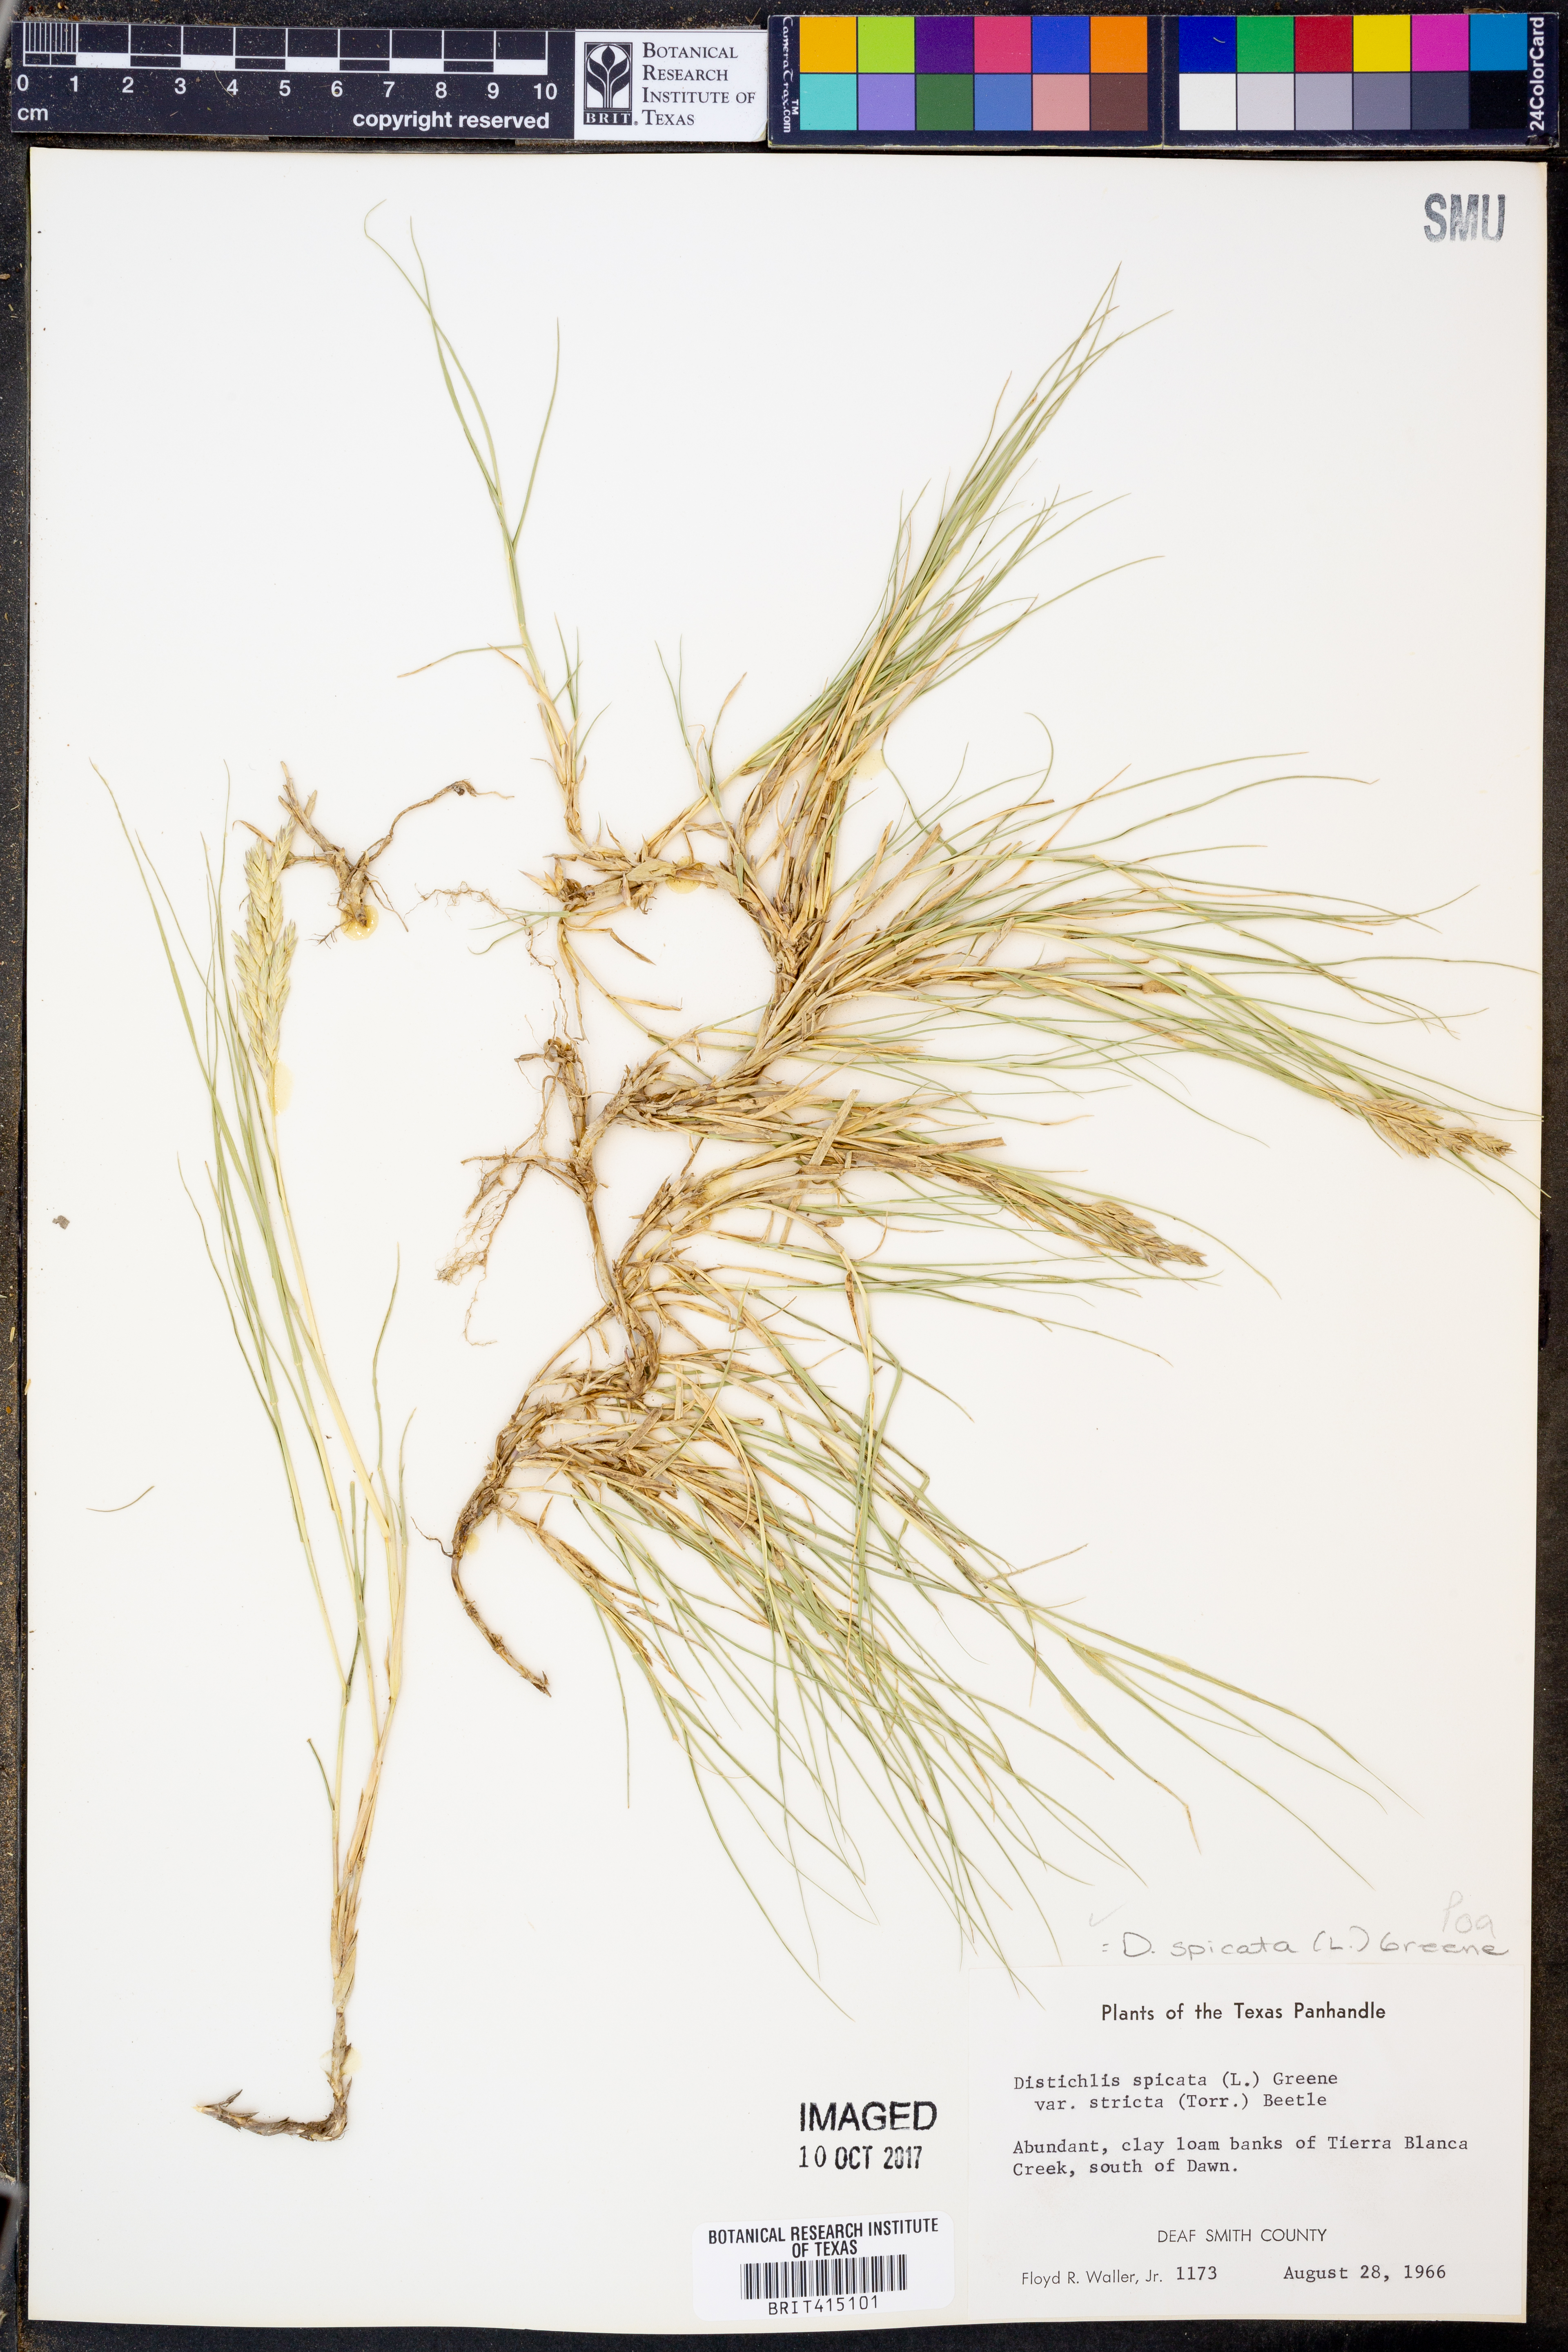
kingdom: Plantae
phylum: Tracheophyta
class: Liliopsida
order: Poales
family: Poaceae
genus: Distichlis
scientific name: Distichlis spicata
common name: Saltgrass
